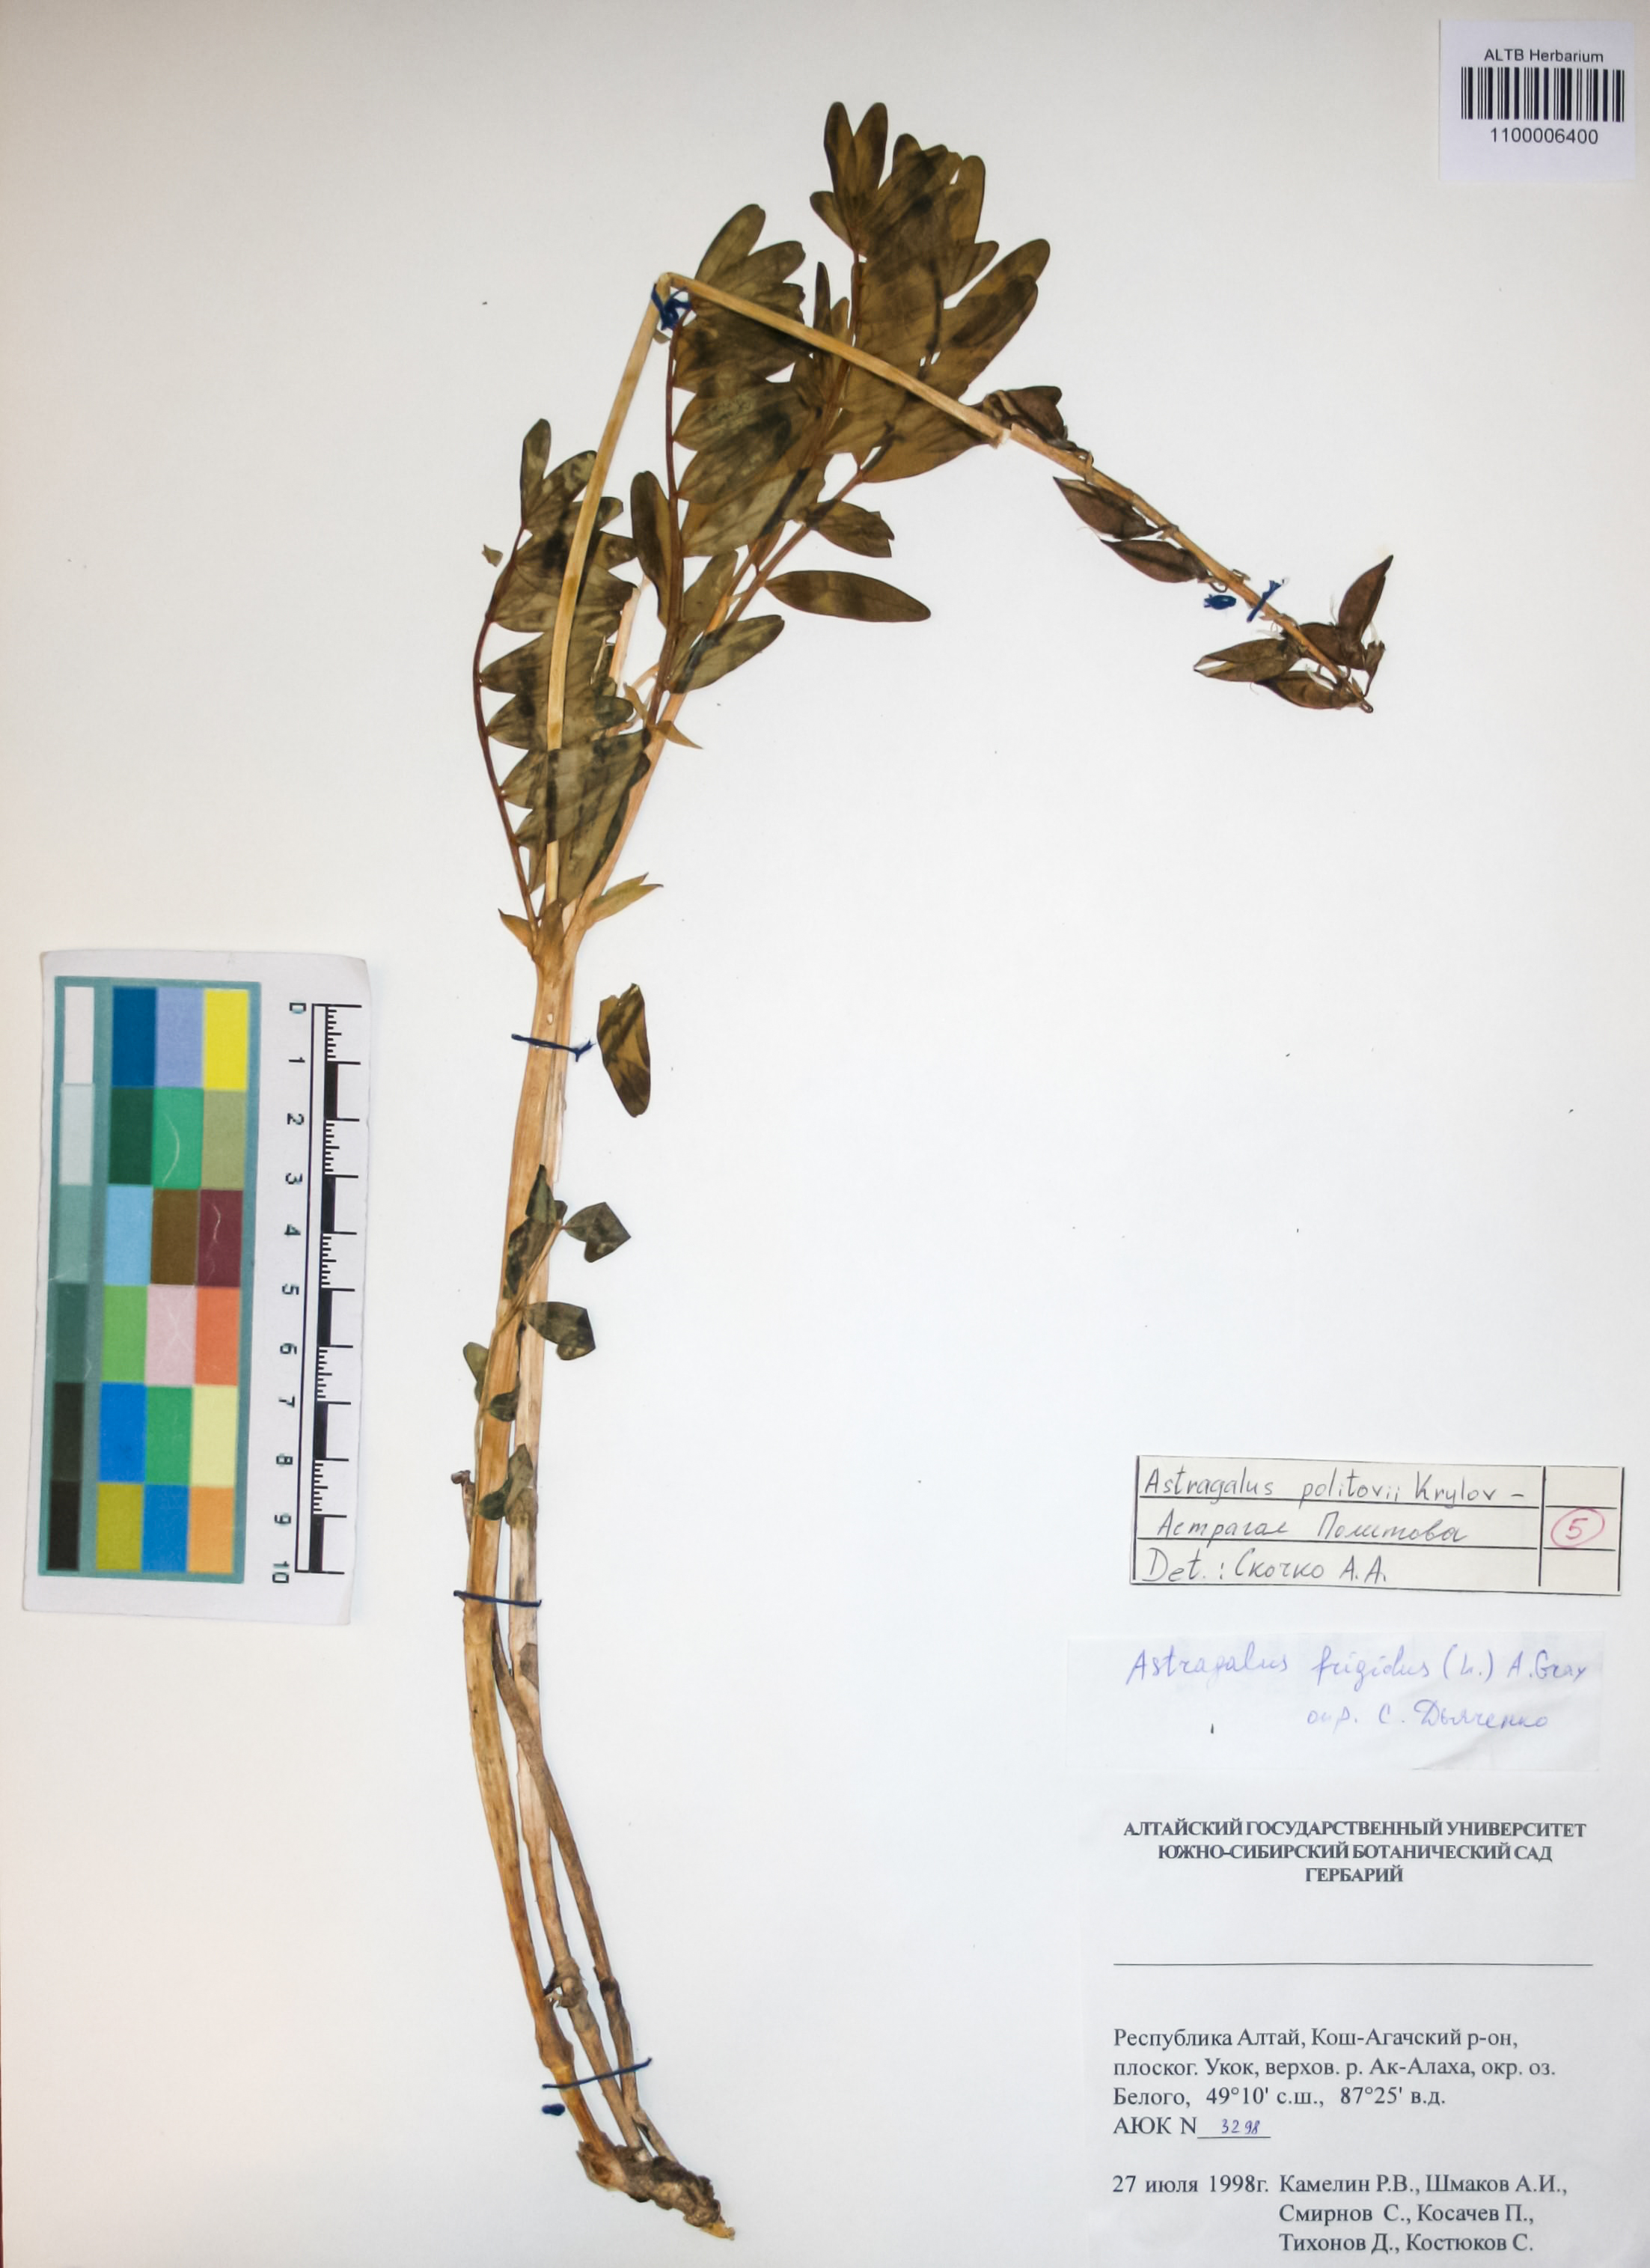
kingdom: Plantae
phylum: Tracheophyta
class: Magnoliopsida
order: Fabales
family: Fabaceae
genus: Astragalus
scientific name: Astragalus politovii
